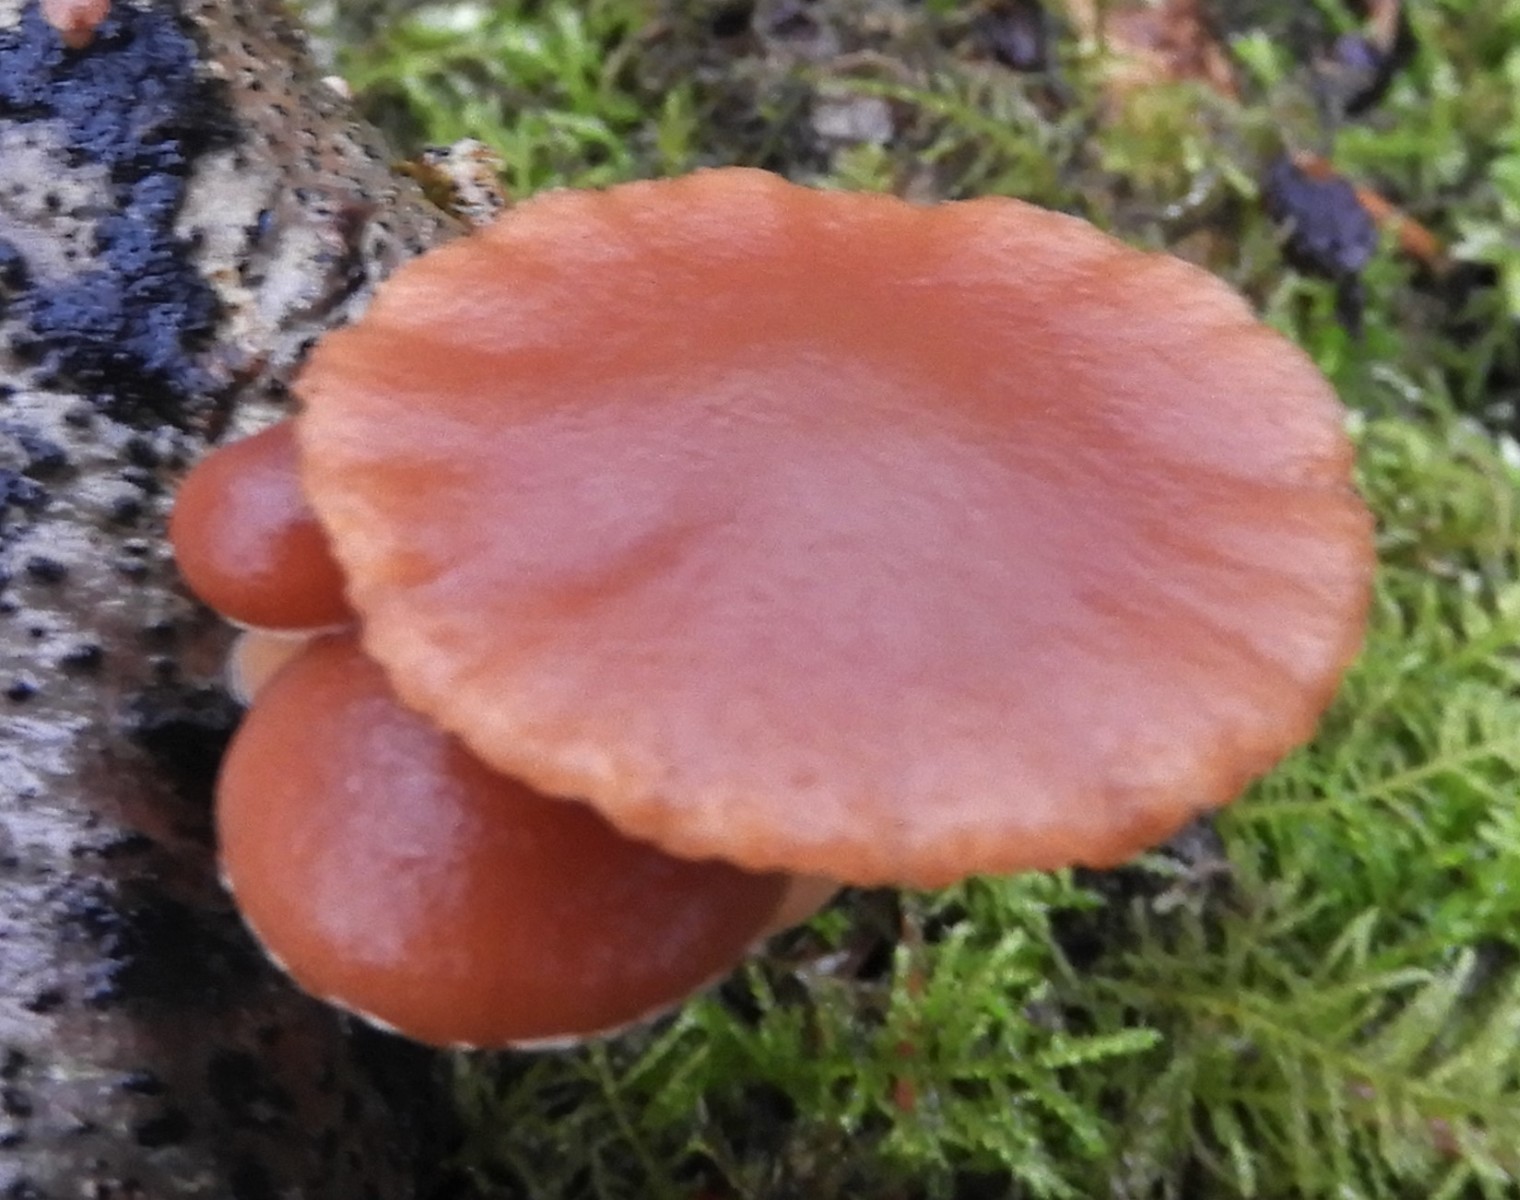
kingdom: Fungi
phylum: Basidiomycota
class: Agaricomycetes
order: Agaricales
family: Tubariaceae
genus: Tubaria
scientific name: Tubaria furfuracea
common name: kliddet fnughat
